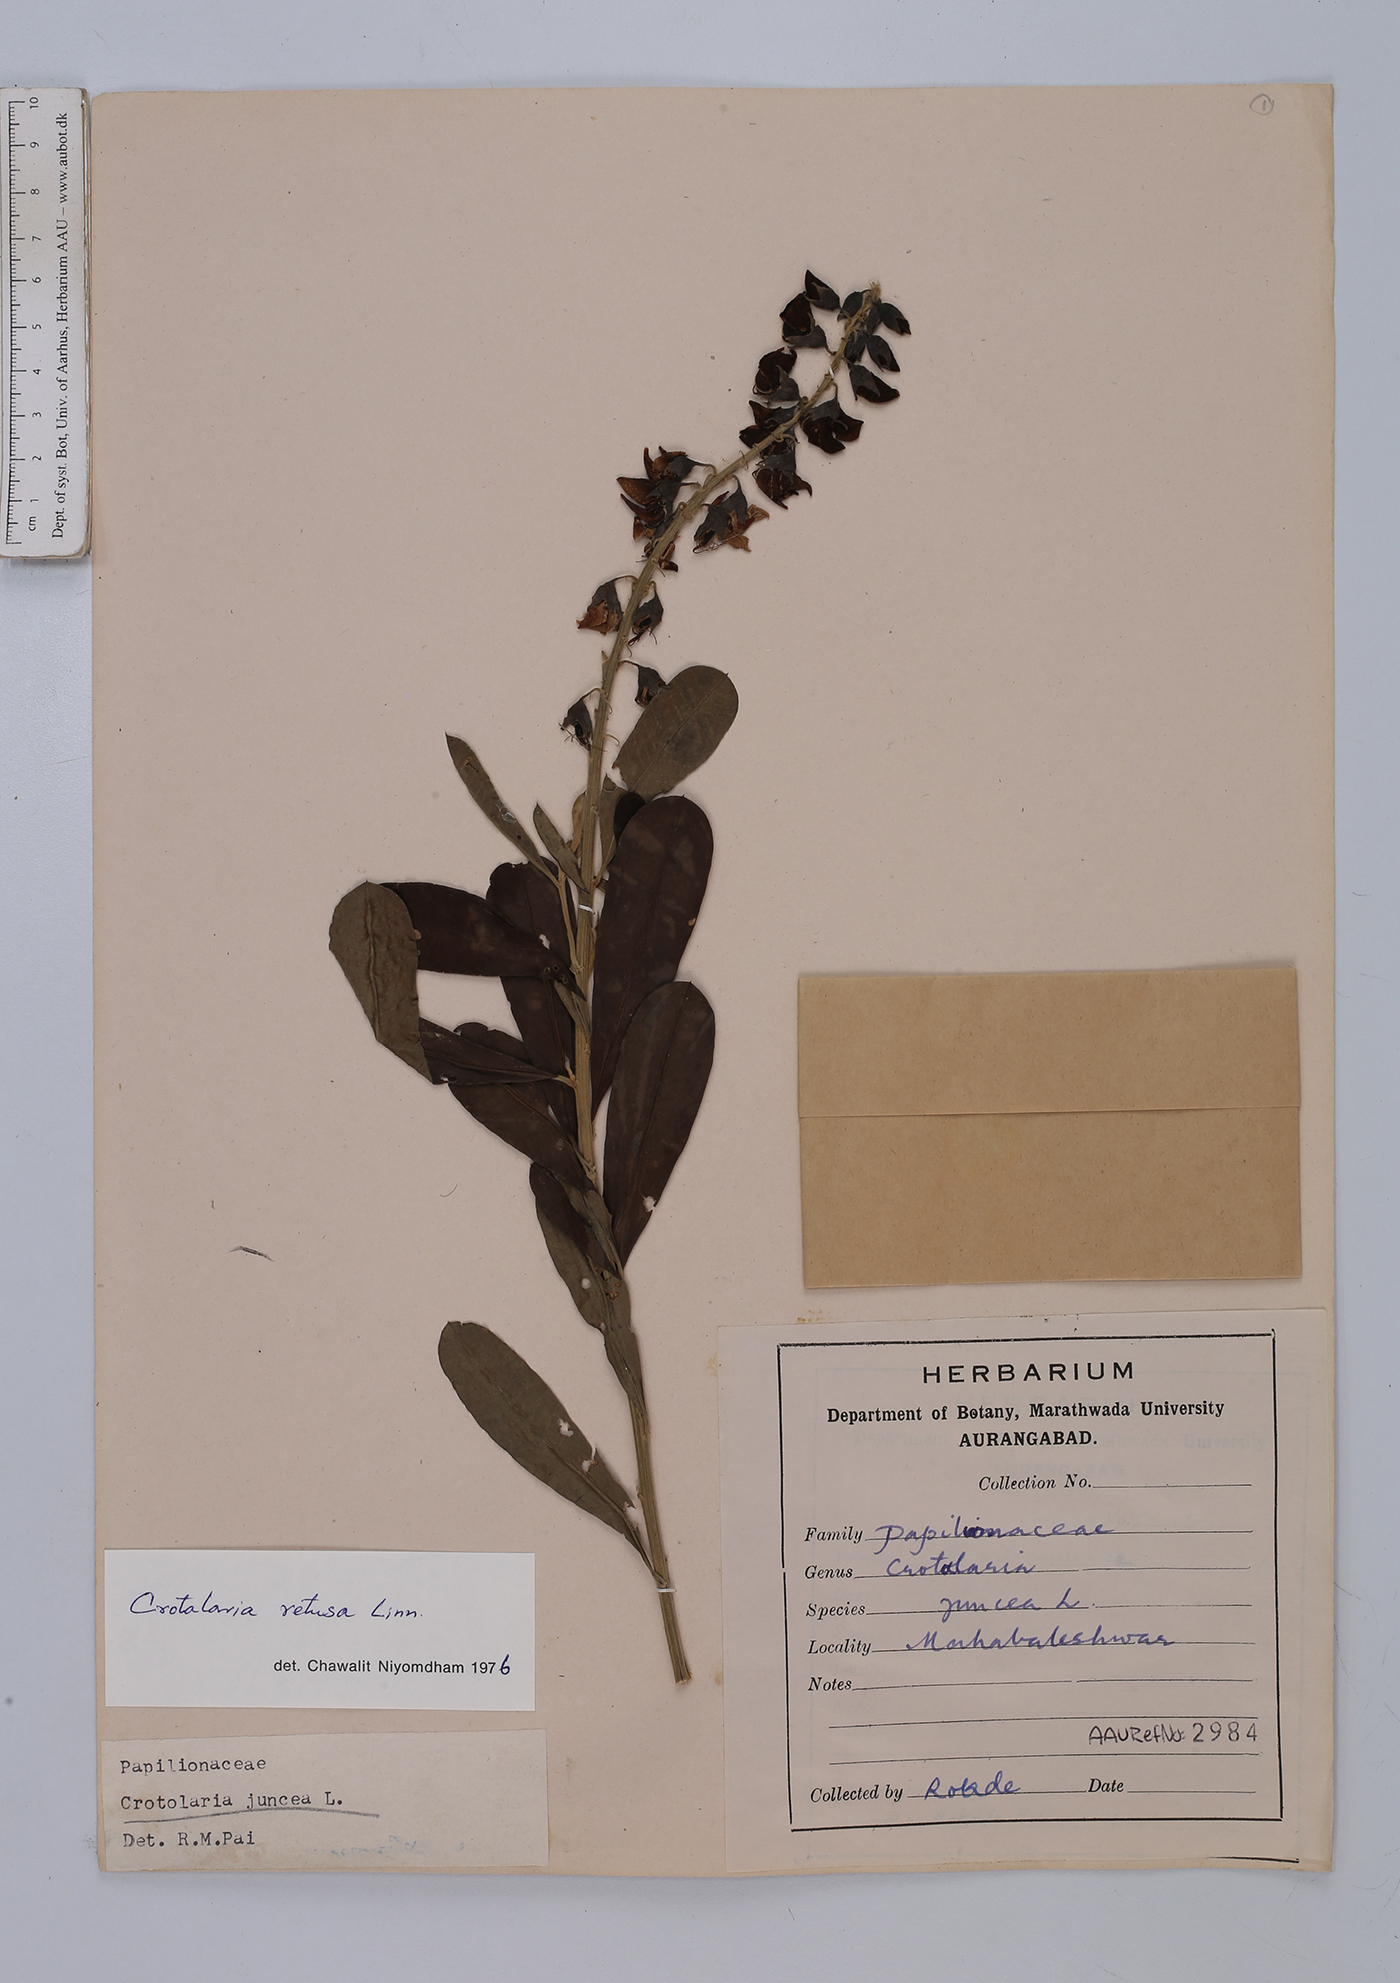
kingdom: Plantae
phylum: Tracheophyta
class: Magnoliopsida
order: Fabales
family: Fabaceae
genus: Crotalaria
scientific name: Crotalaria retusa
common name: Rattleweed
